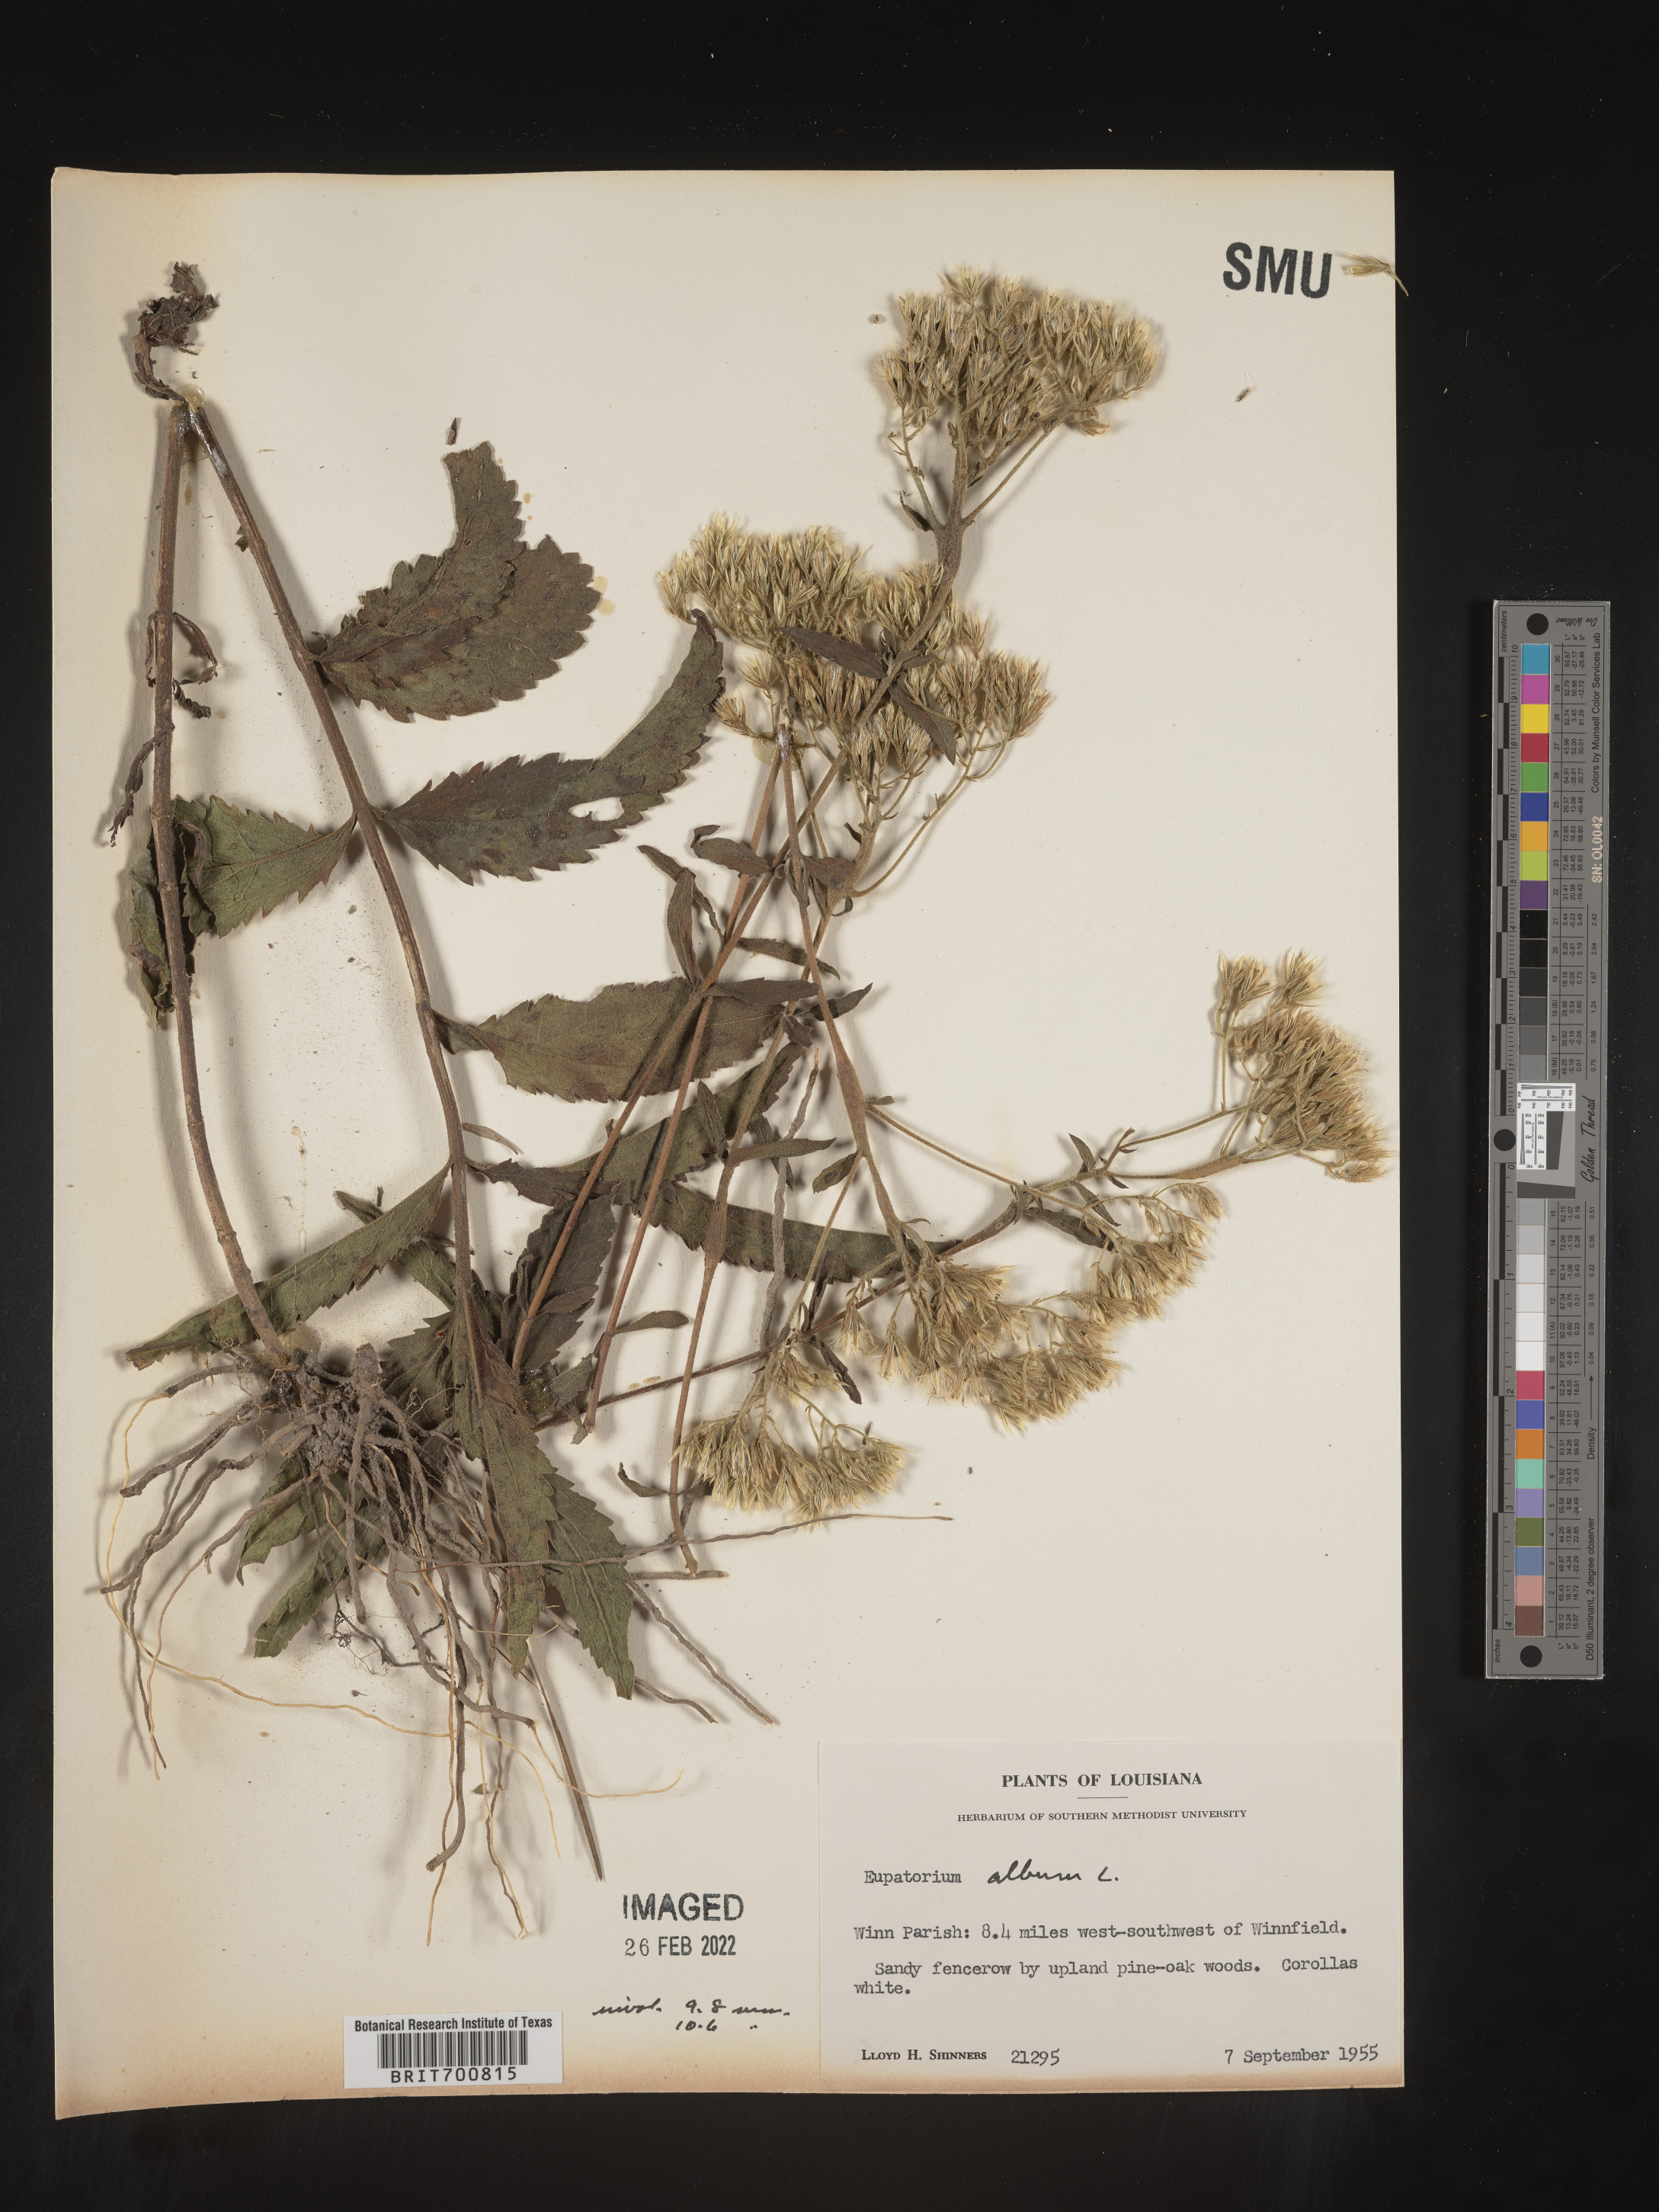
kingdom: Plantae
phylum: Tracheophyta
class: Magnoliopsida
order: Asterales
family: Asteraceae
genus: Eupatorium
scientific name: Eupatorium album
